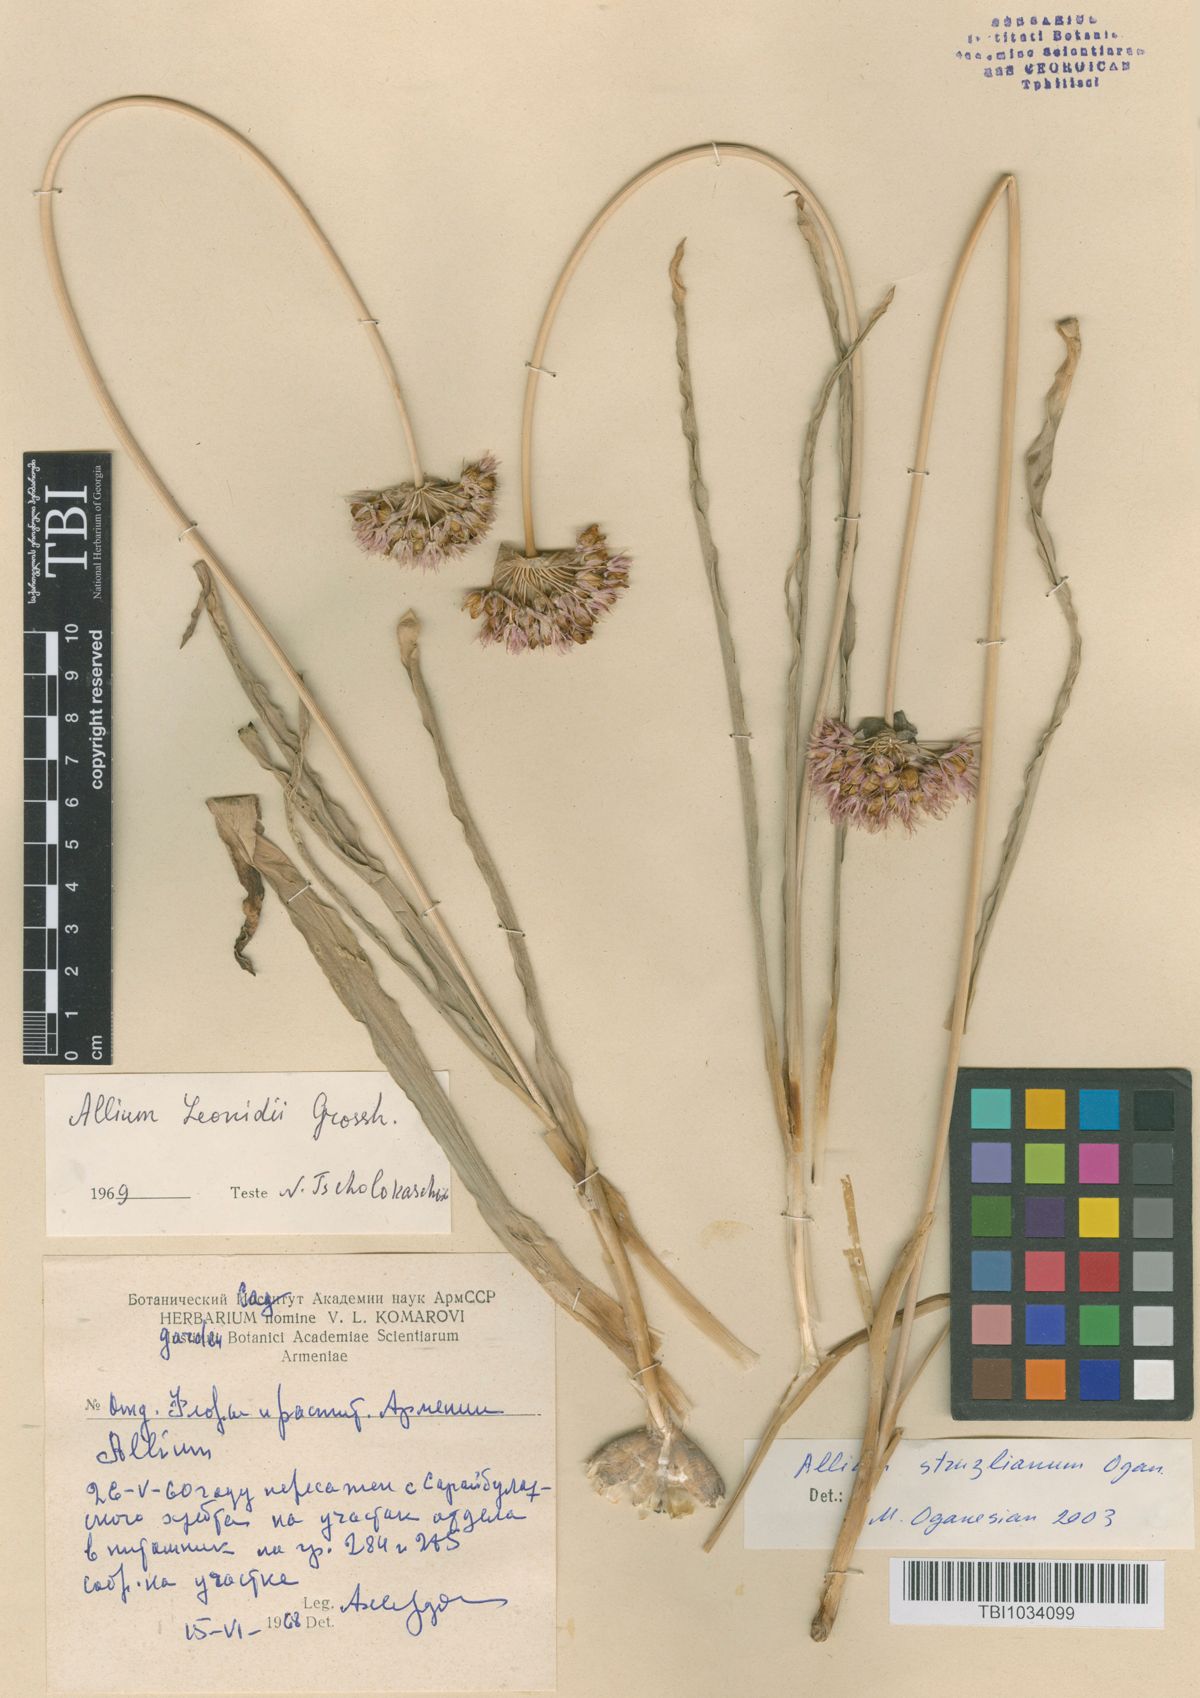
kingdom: Plantae
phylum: Tracheophyta
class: Liliopsida
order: Asparagales
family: Amaryllidaceae
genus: Allium
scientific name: Allium struzlianum
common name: Struzl's onion
